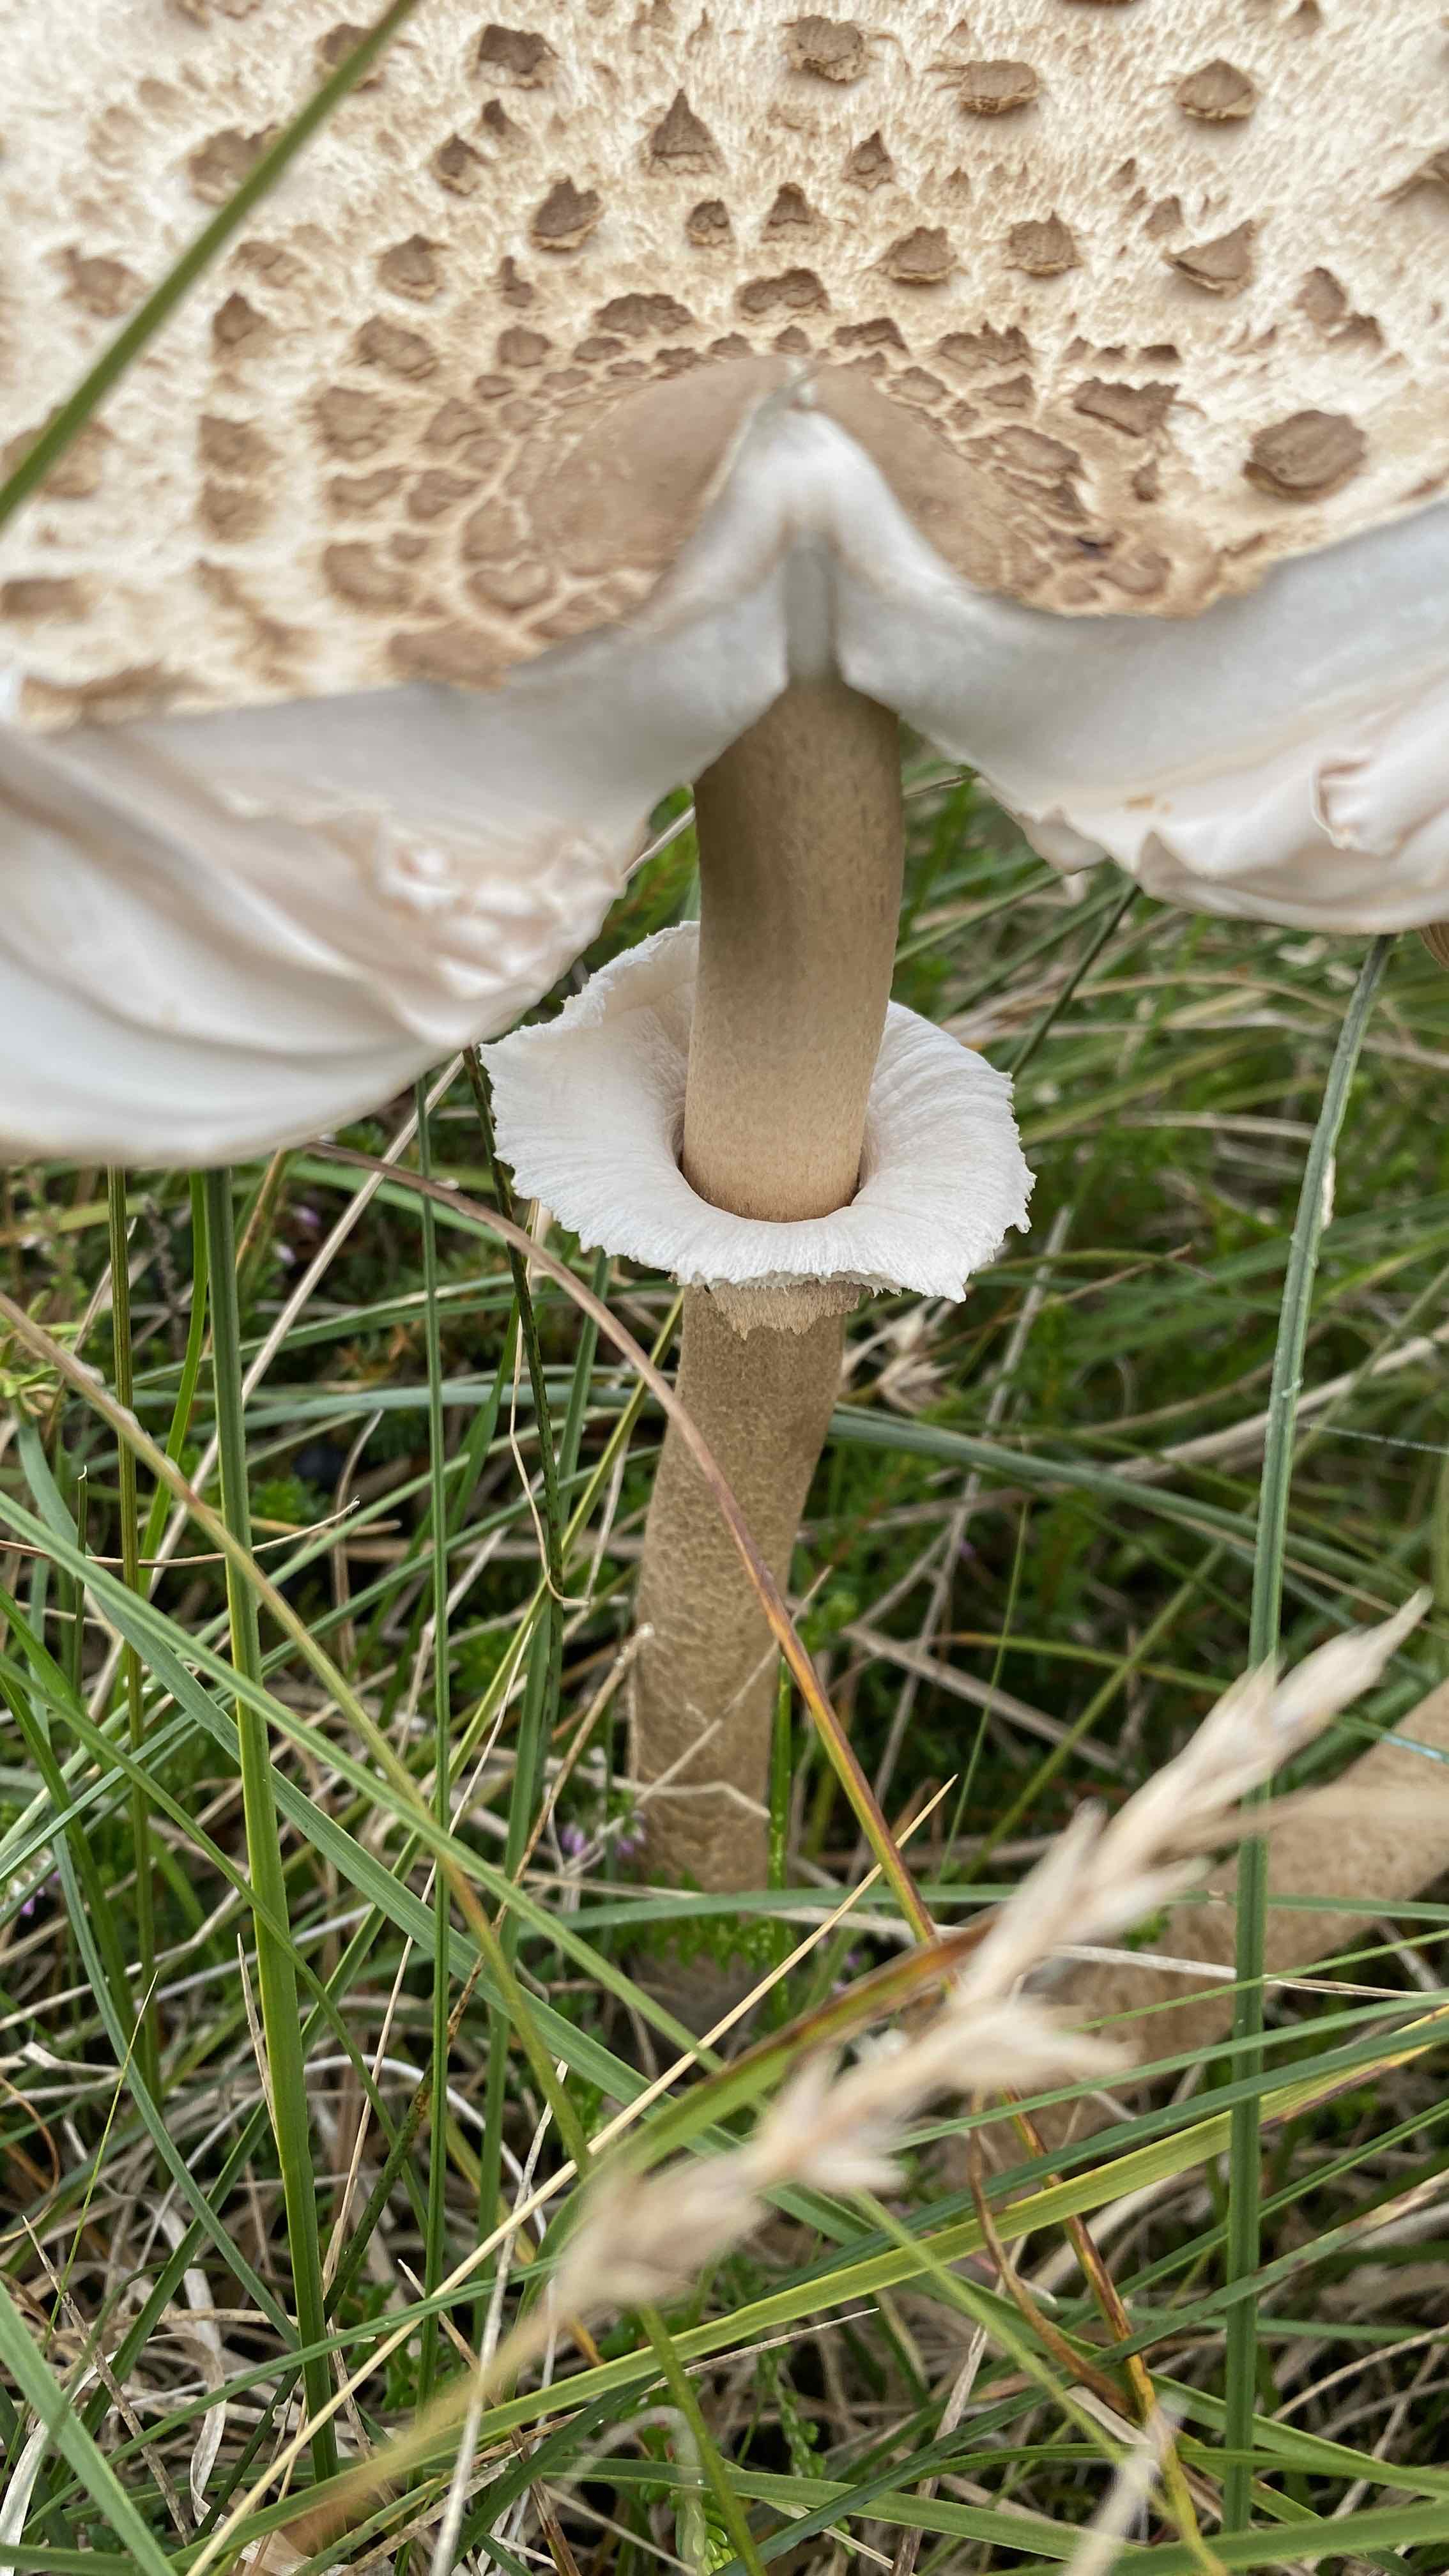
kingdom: Fungi
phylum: Basidiomycota
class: Agaricomycetes
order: Agaricales
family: Agaricaceae
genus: Macrolepiota
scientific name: Macrolepiota procera
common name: stor kæmpeparasolhat
